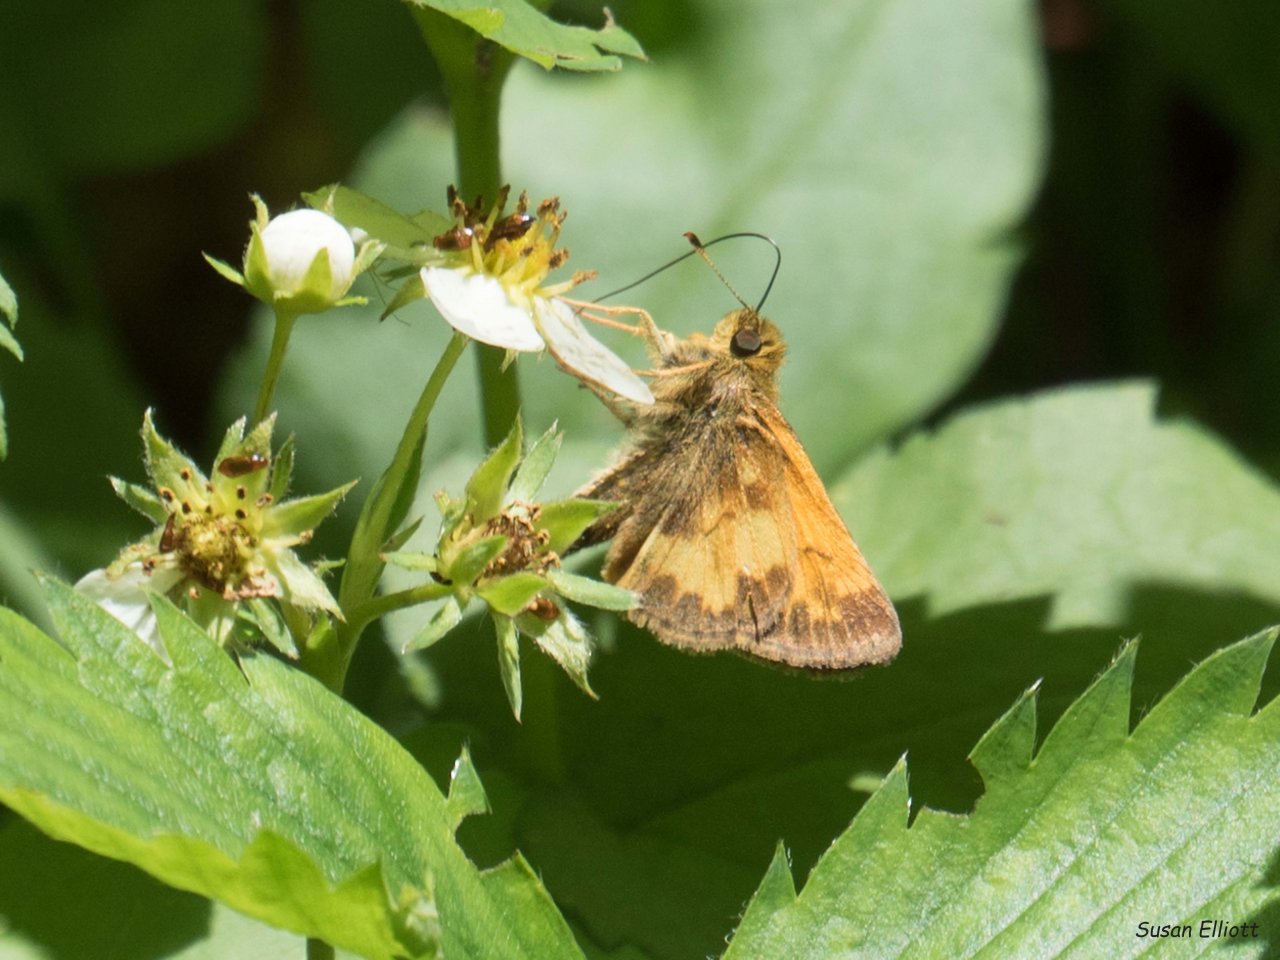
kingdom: Animalia
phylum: Arthropoda
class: Insecta
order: Lepidoptera
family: Hesperiidae
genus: Lon
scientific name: Lon hobomok
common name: Hobomok Skipper
